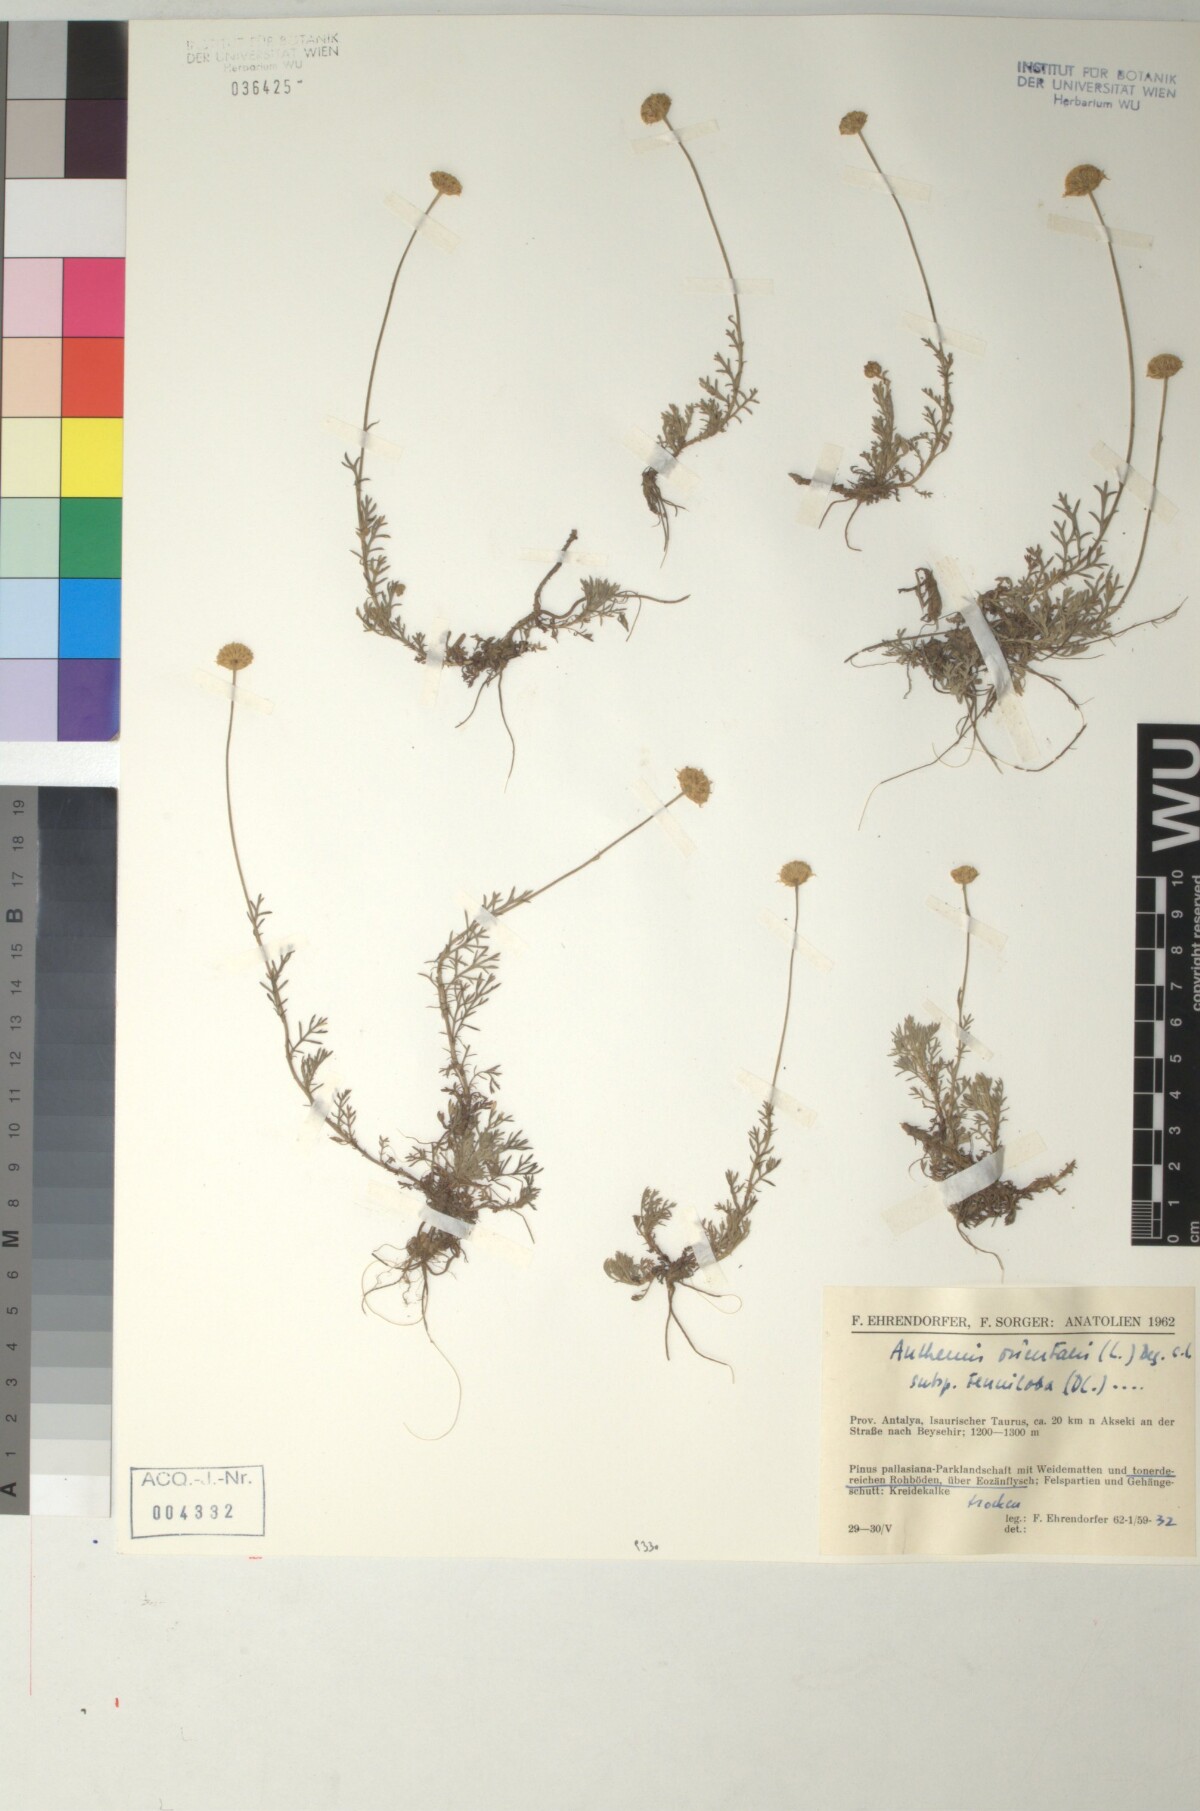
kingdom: Plantae
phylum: Tracheophyta
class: Magnoliopsida
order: Asterales
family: Asteraceae
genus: Anthemis
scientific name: Anthemis orientalis
